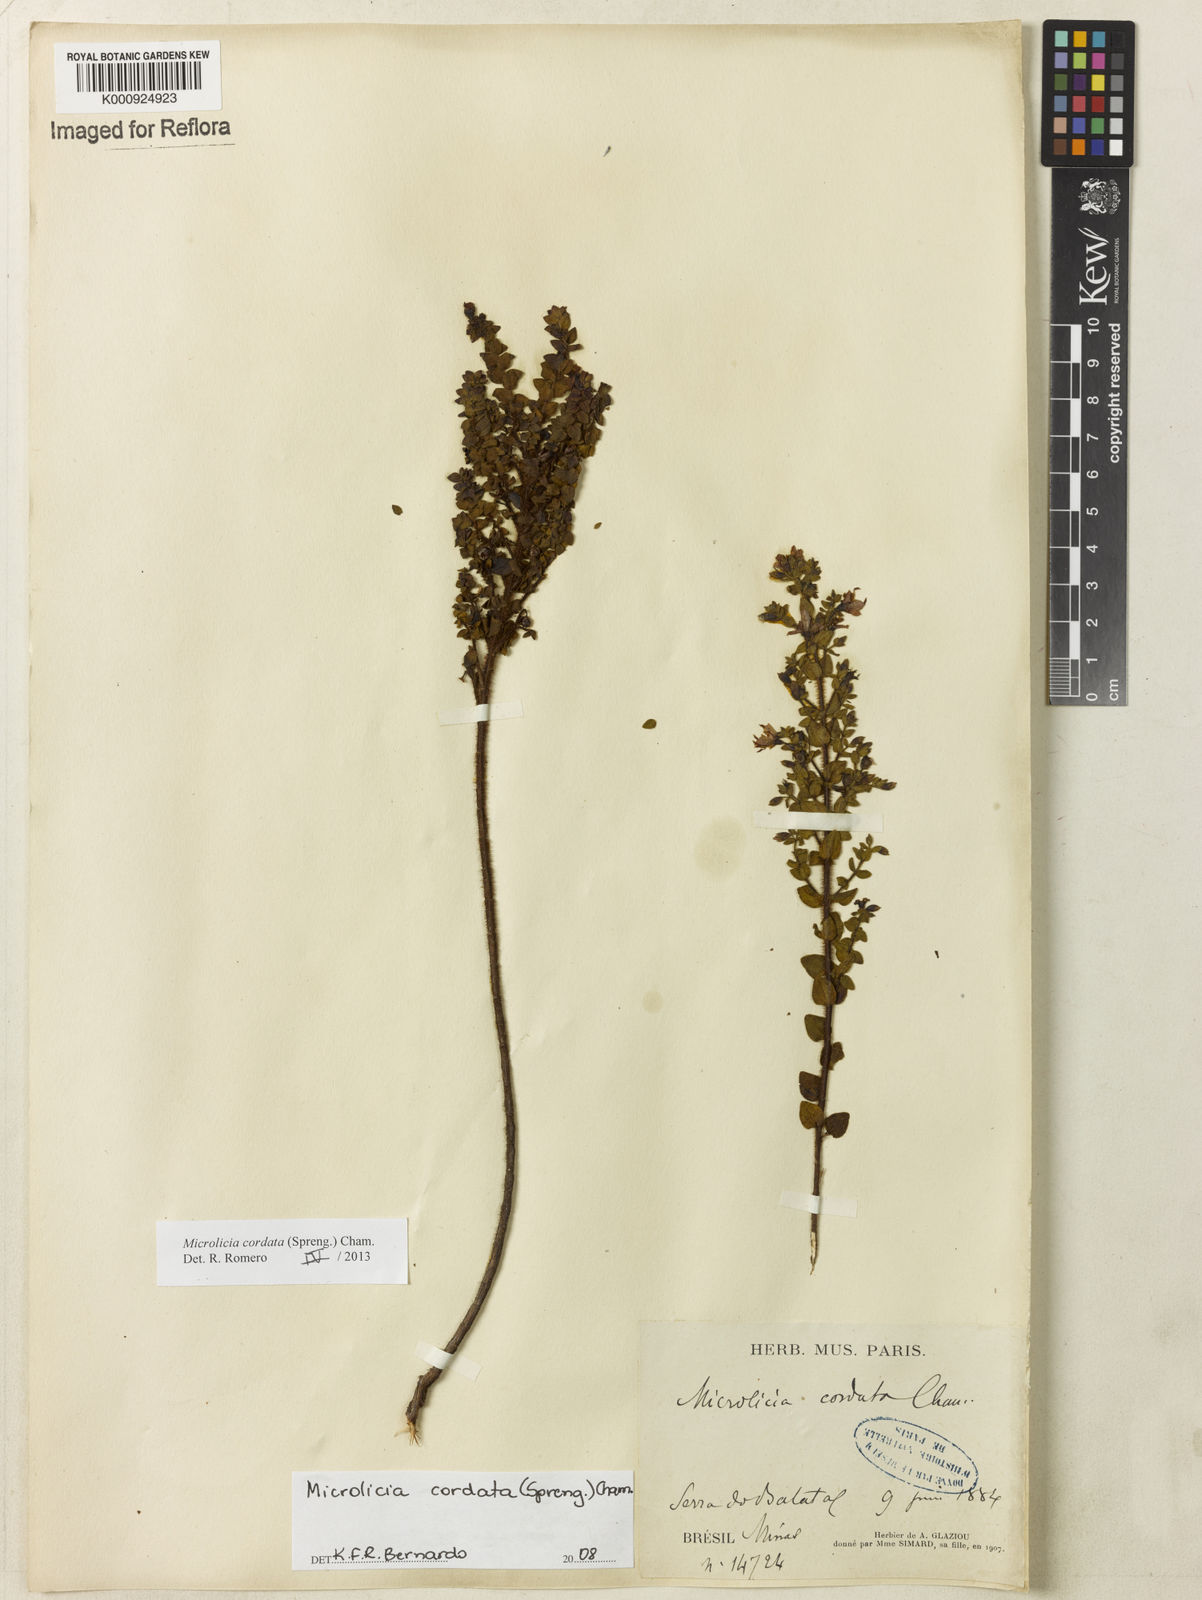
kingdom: Plantae
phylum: Tracheophyta
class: Magnoliopsida
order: Myrtales
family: Melastomataceae
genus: Microlicia
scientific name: Microlicia cordata
